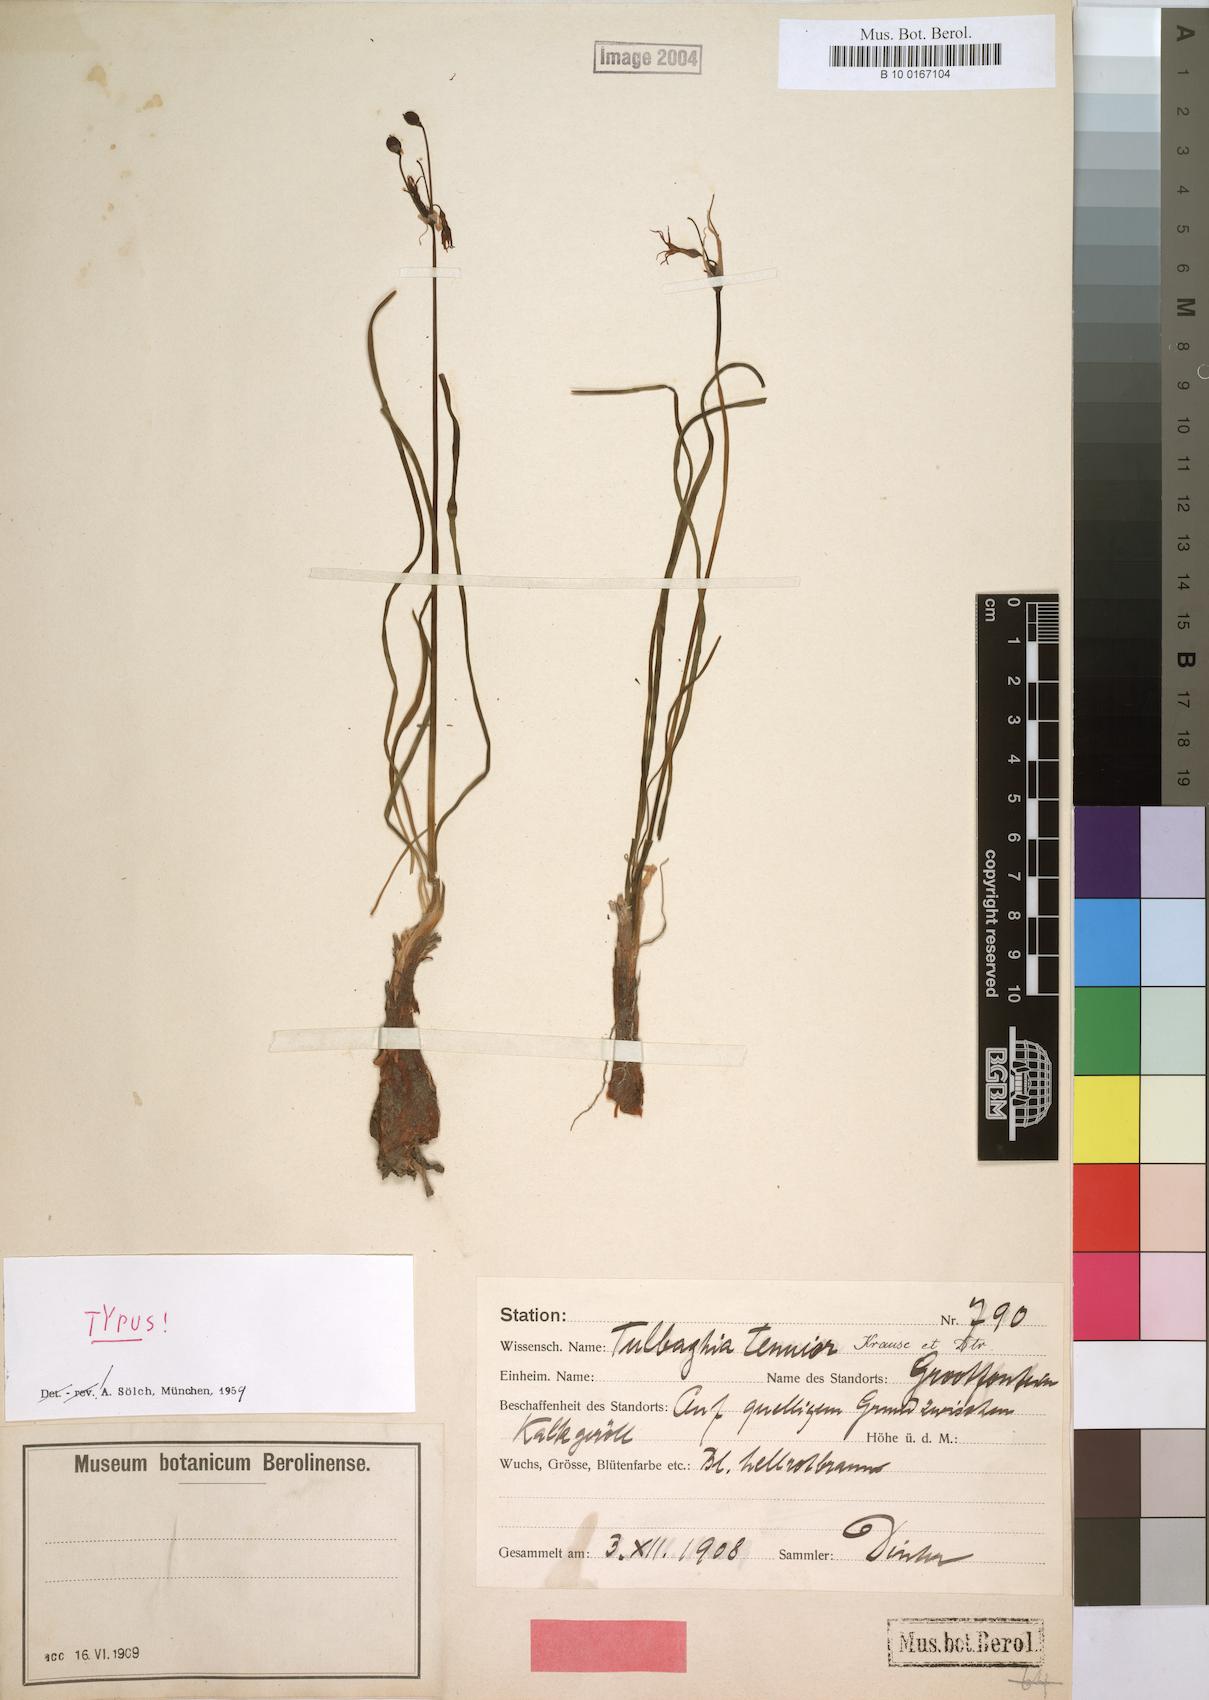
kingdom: Plantae
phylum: Tracheophyta
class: Liliopsida
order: Asparagales
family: Amaryllidaceae
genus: Tulbaghia
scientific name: Tulbaghia tenuior
